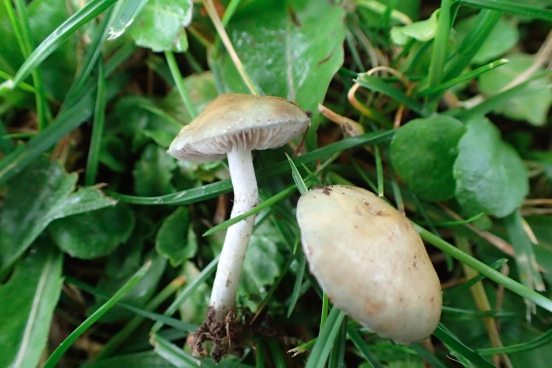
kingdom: Fungi
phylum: Basidiomycota
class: Agaricomycetes
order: Agaricales
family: Strophariaceae
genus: Stropharia
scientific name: Stropharia cyanea
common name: blågrøn bredblad
